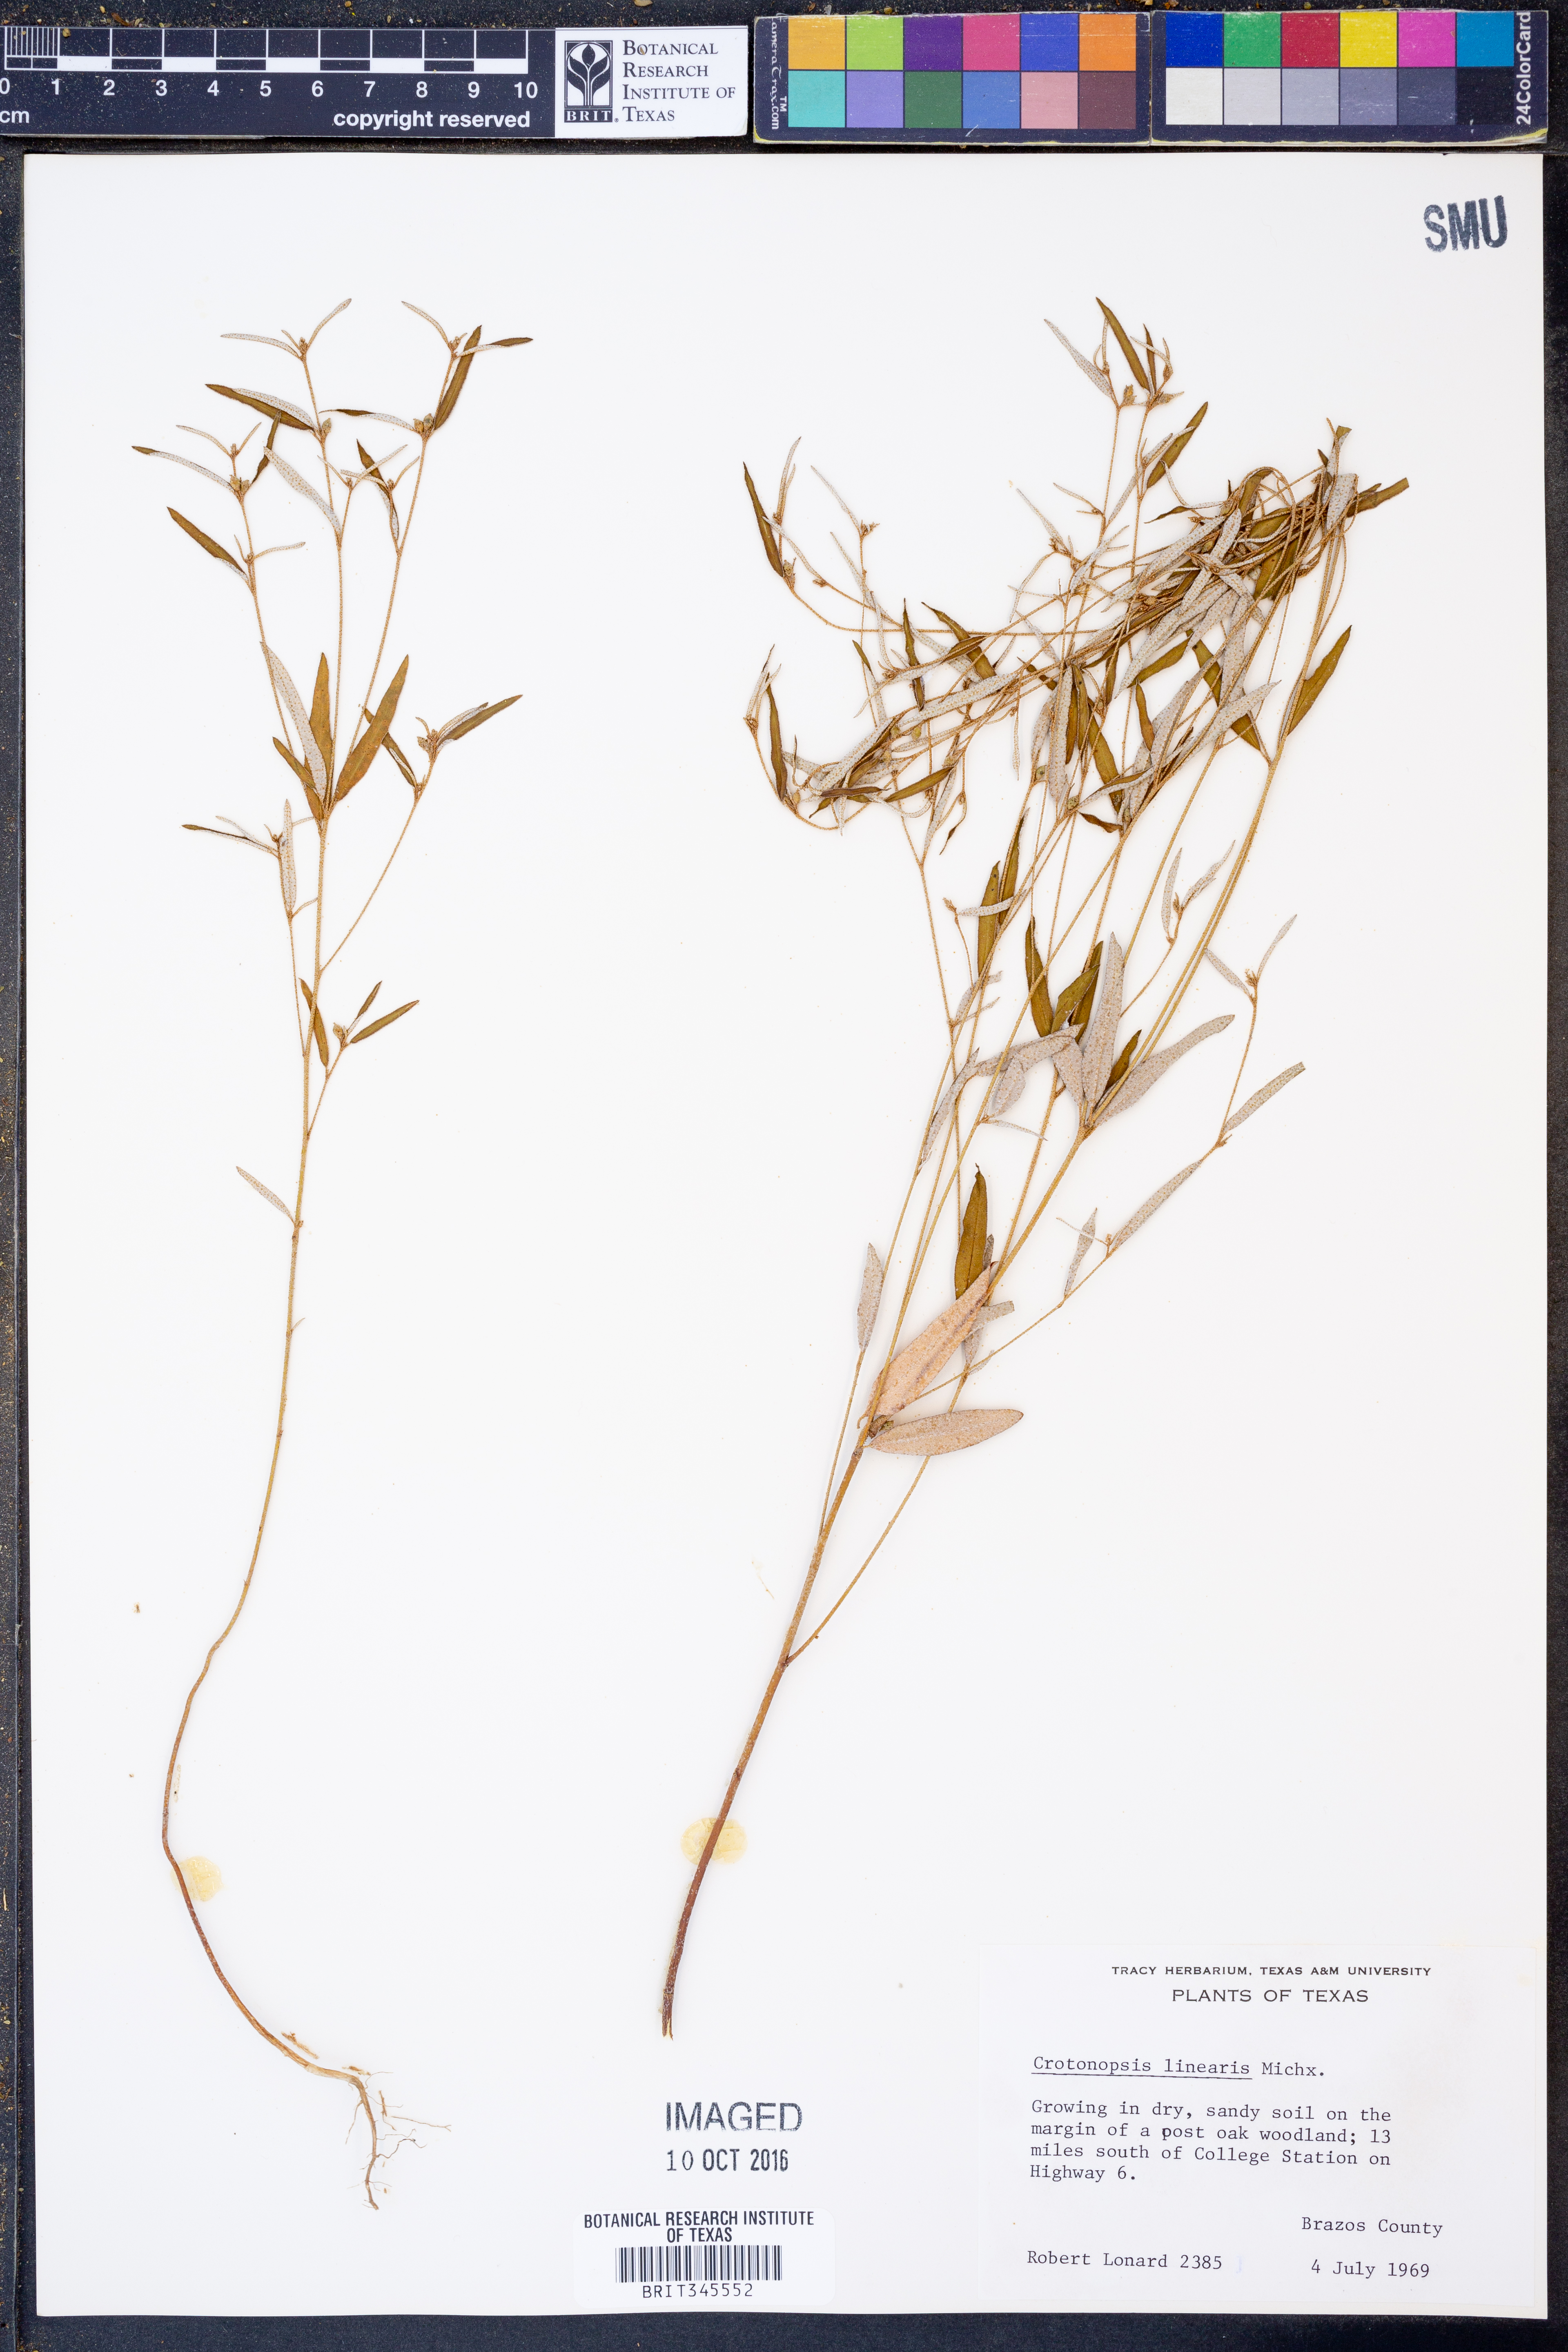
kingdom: Plantae
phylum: Tracheophyta
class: Magnoliopsida
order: Malpighiales
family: Euphorbiaceae
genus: Croton
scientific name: Croton michauxii
